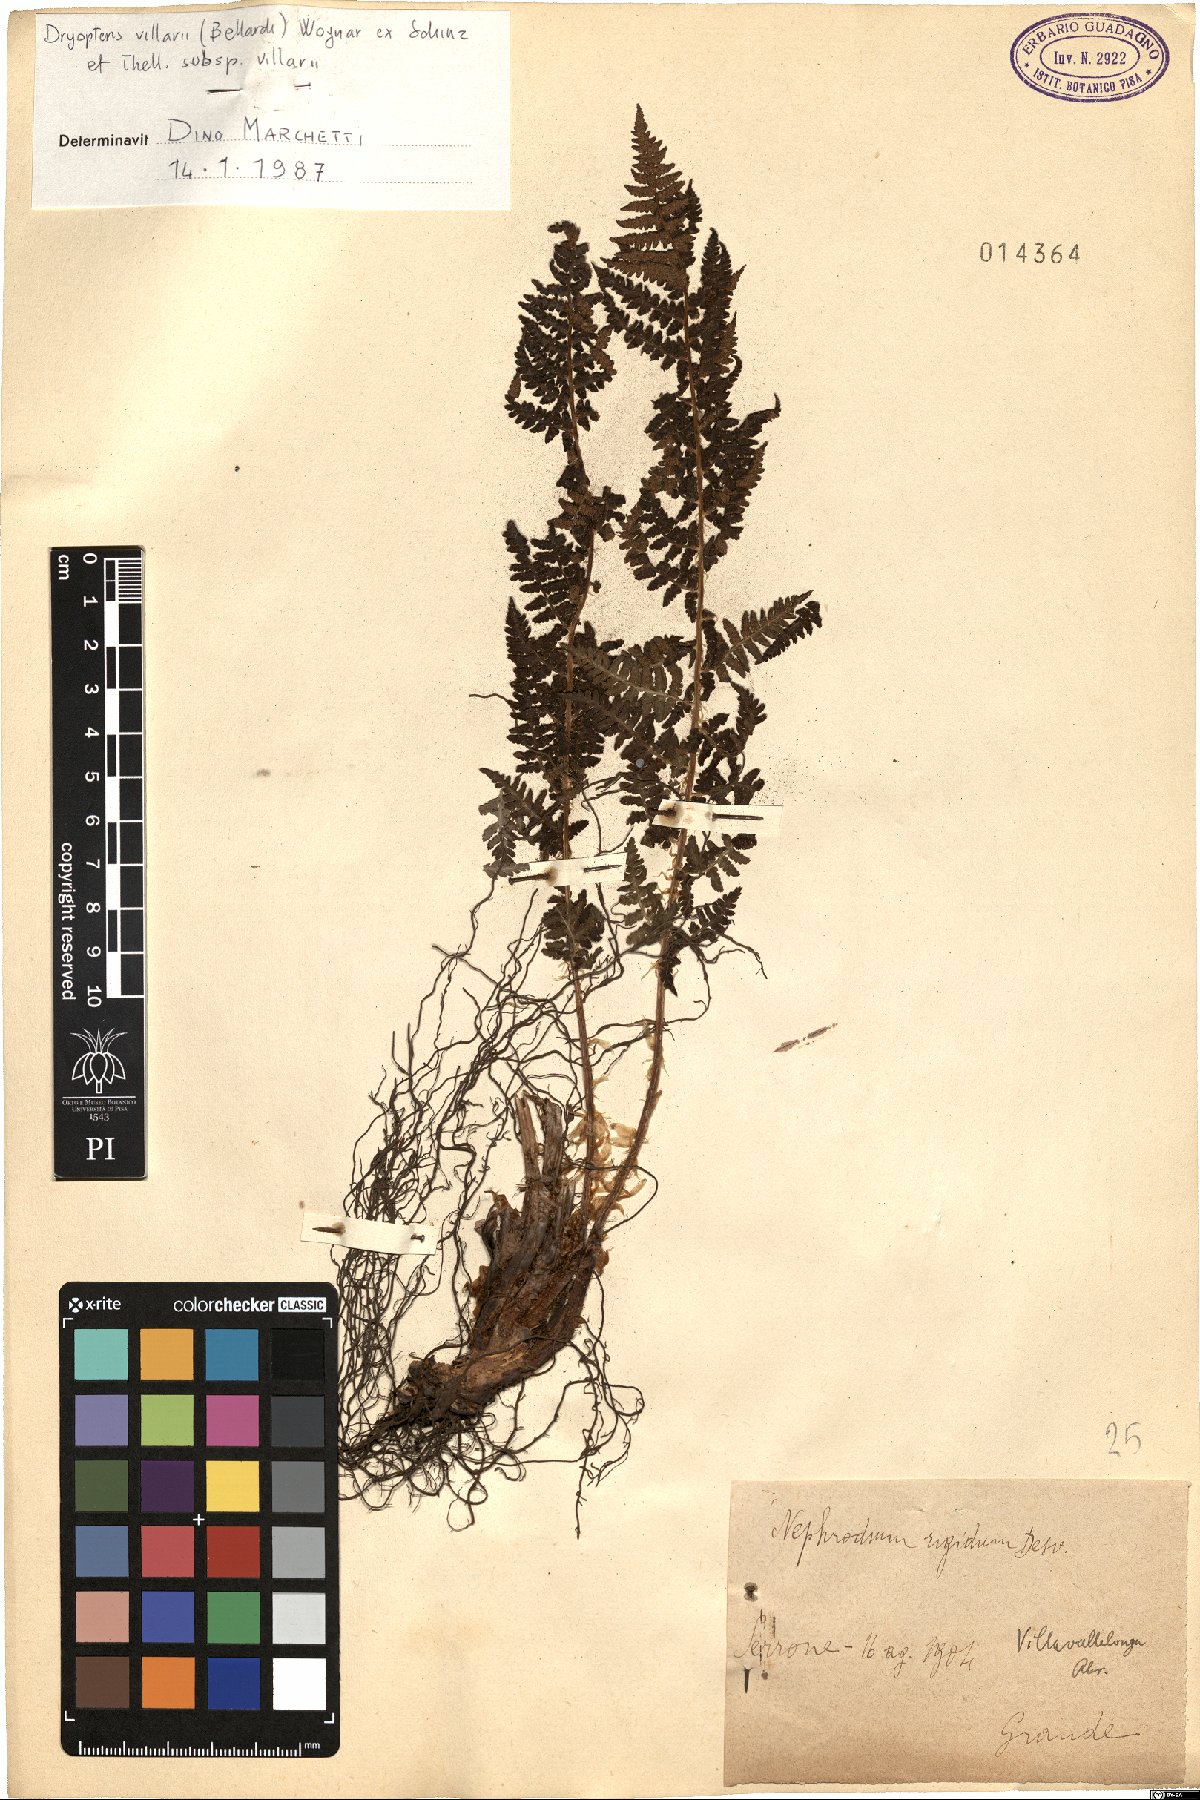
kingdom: Plantae
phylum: Tracheophyta
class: Polypodiopsida
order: Polypodiales
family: Dryopteridaceae
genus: Dryopteris
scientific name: Dryopteris villarii
